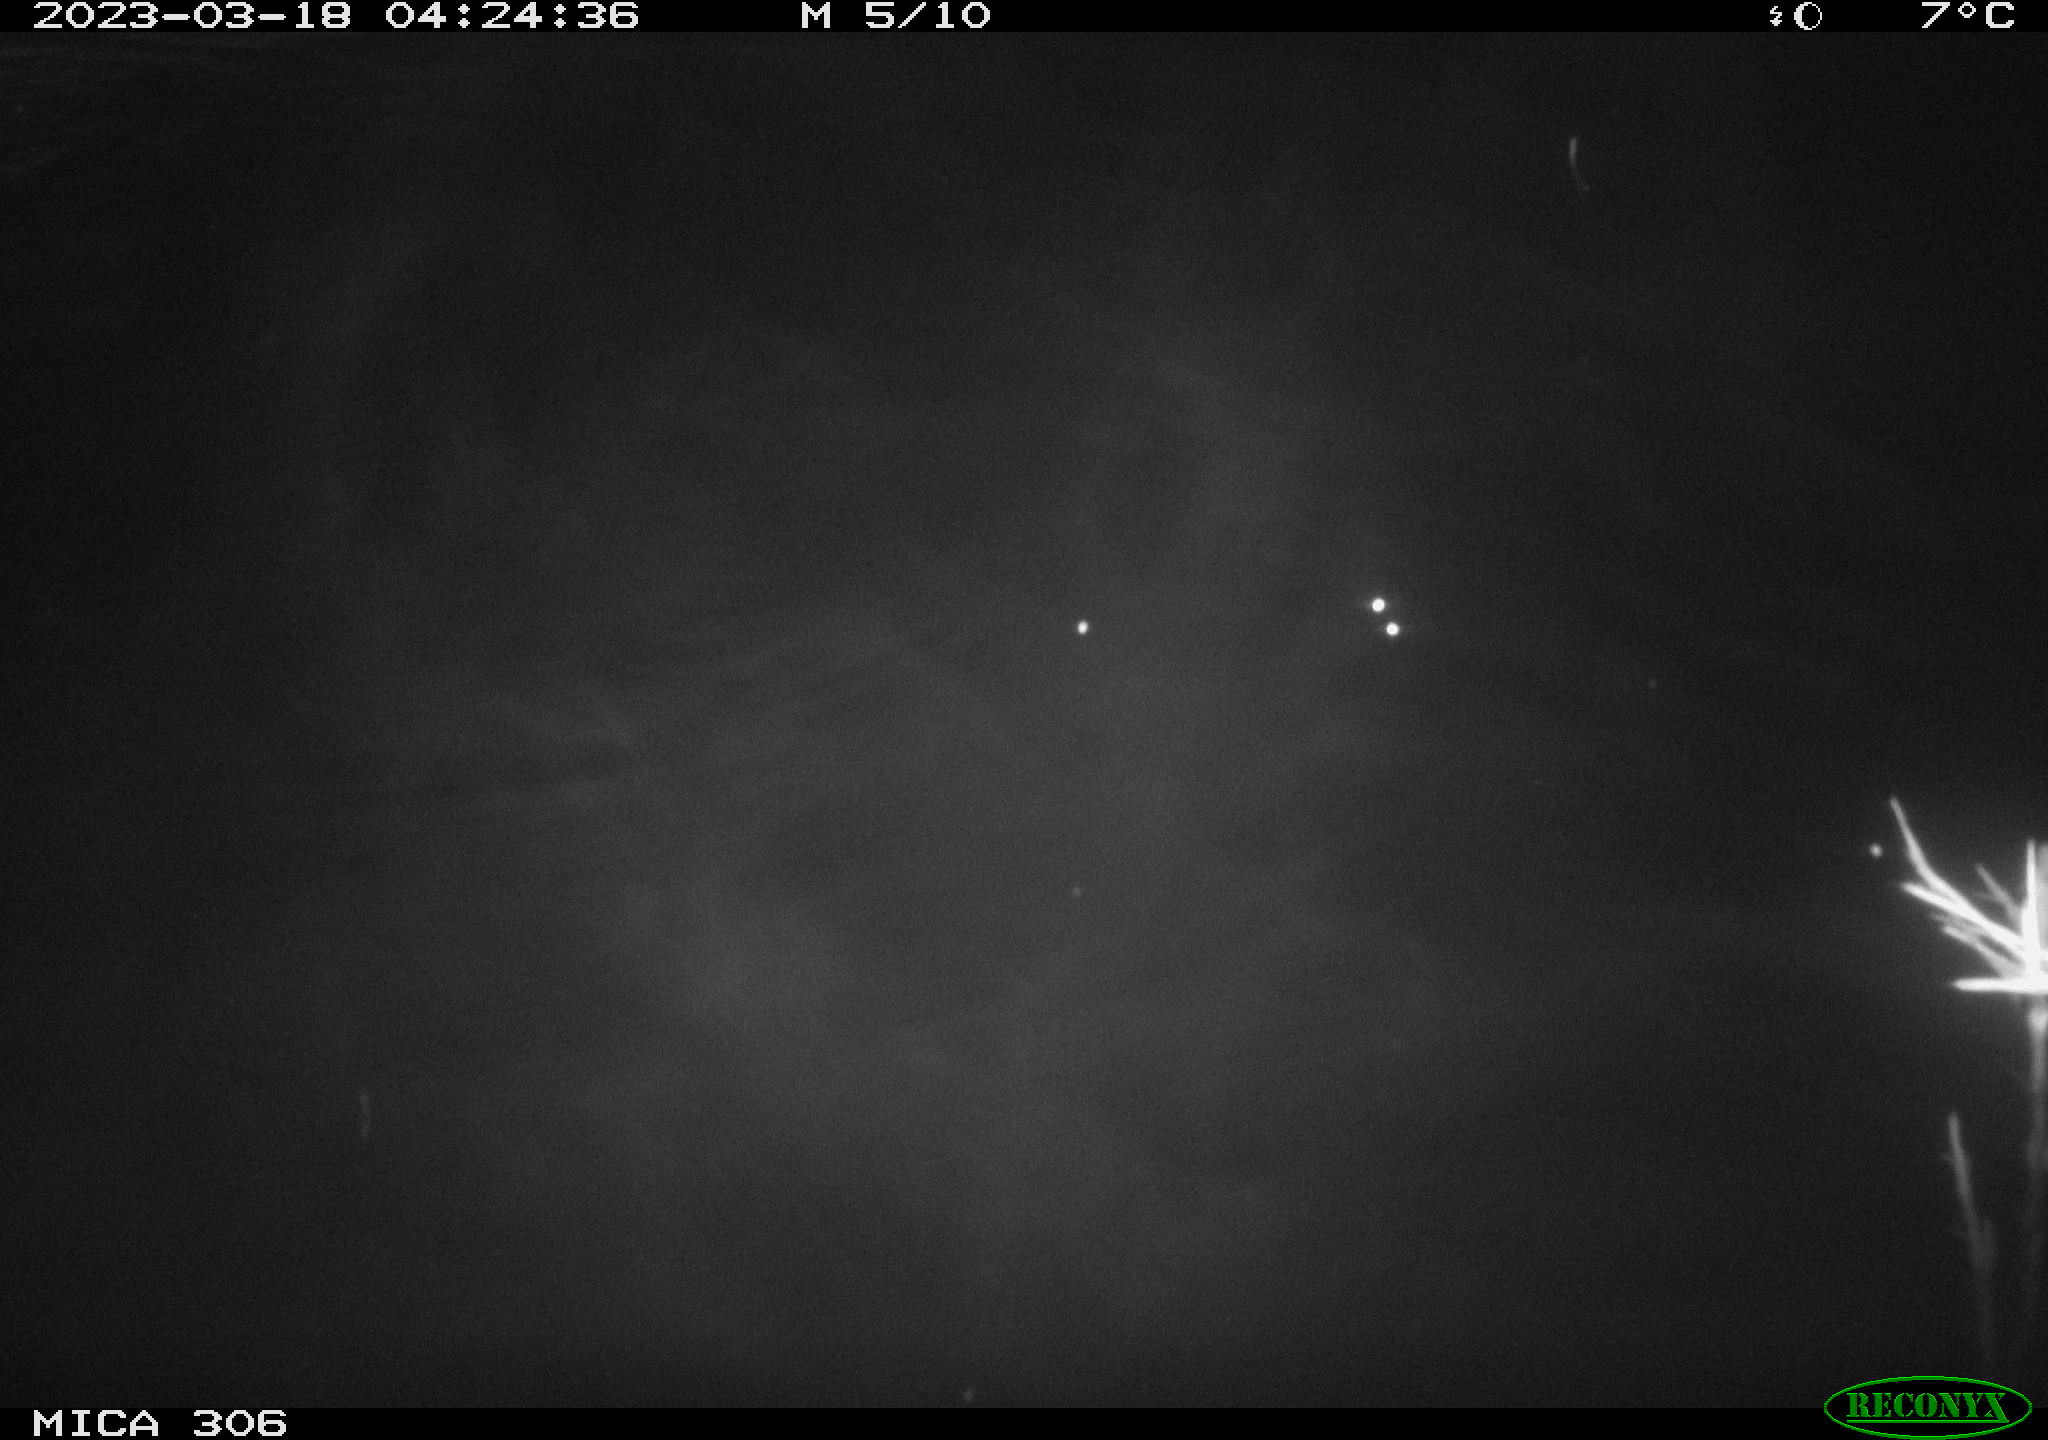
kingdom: Animalia
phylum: Chordata
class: Mammalia
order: Rodentia
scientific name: Rodentia
